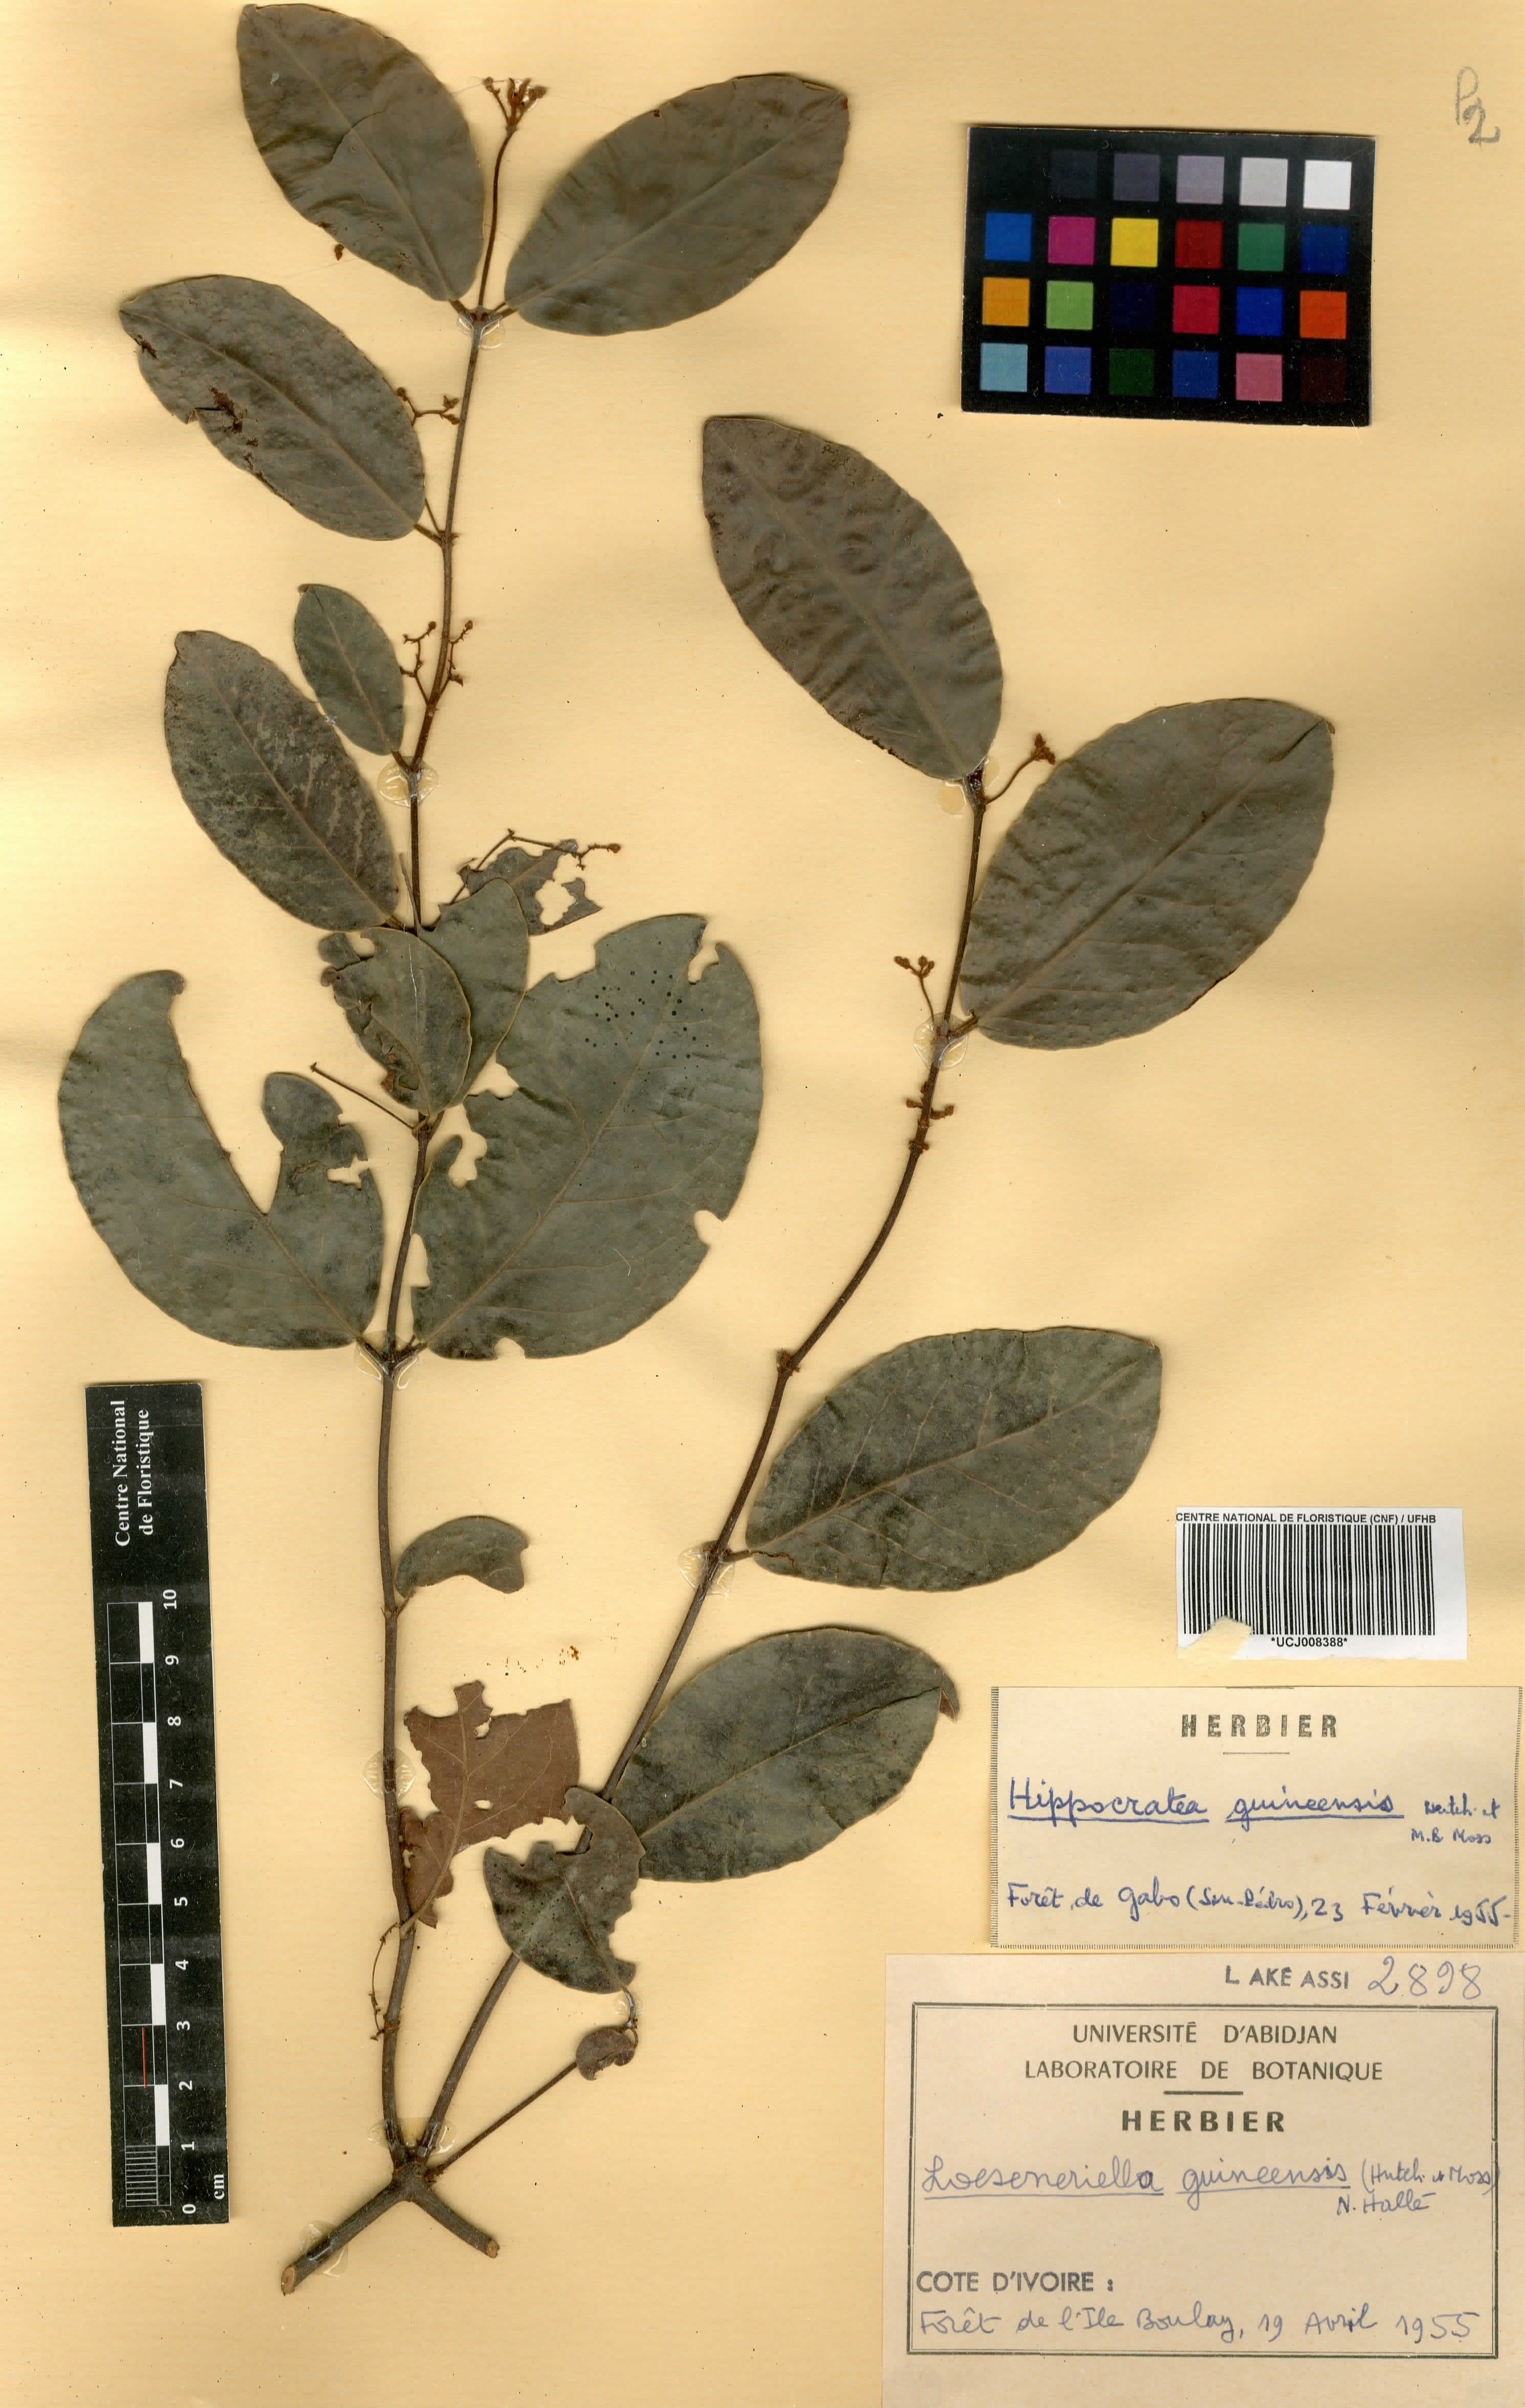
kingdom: Plantae
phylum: Tracheophyta
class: Magnoliopsida
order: Celastrales
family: Celastraceae
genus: Loeseneriella
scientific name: Loeseneriella apocynoides
